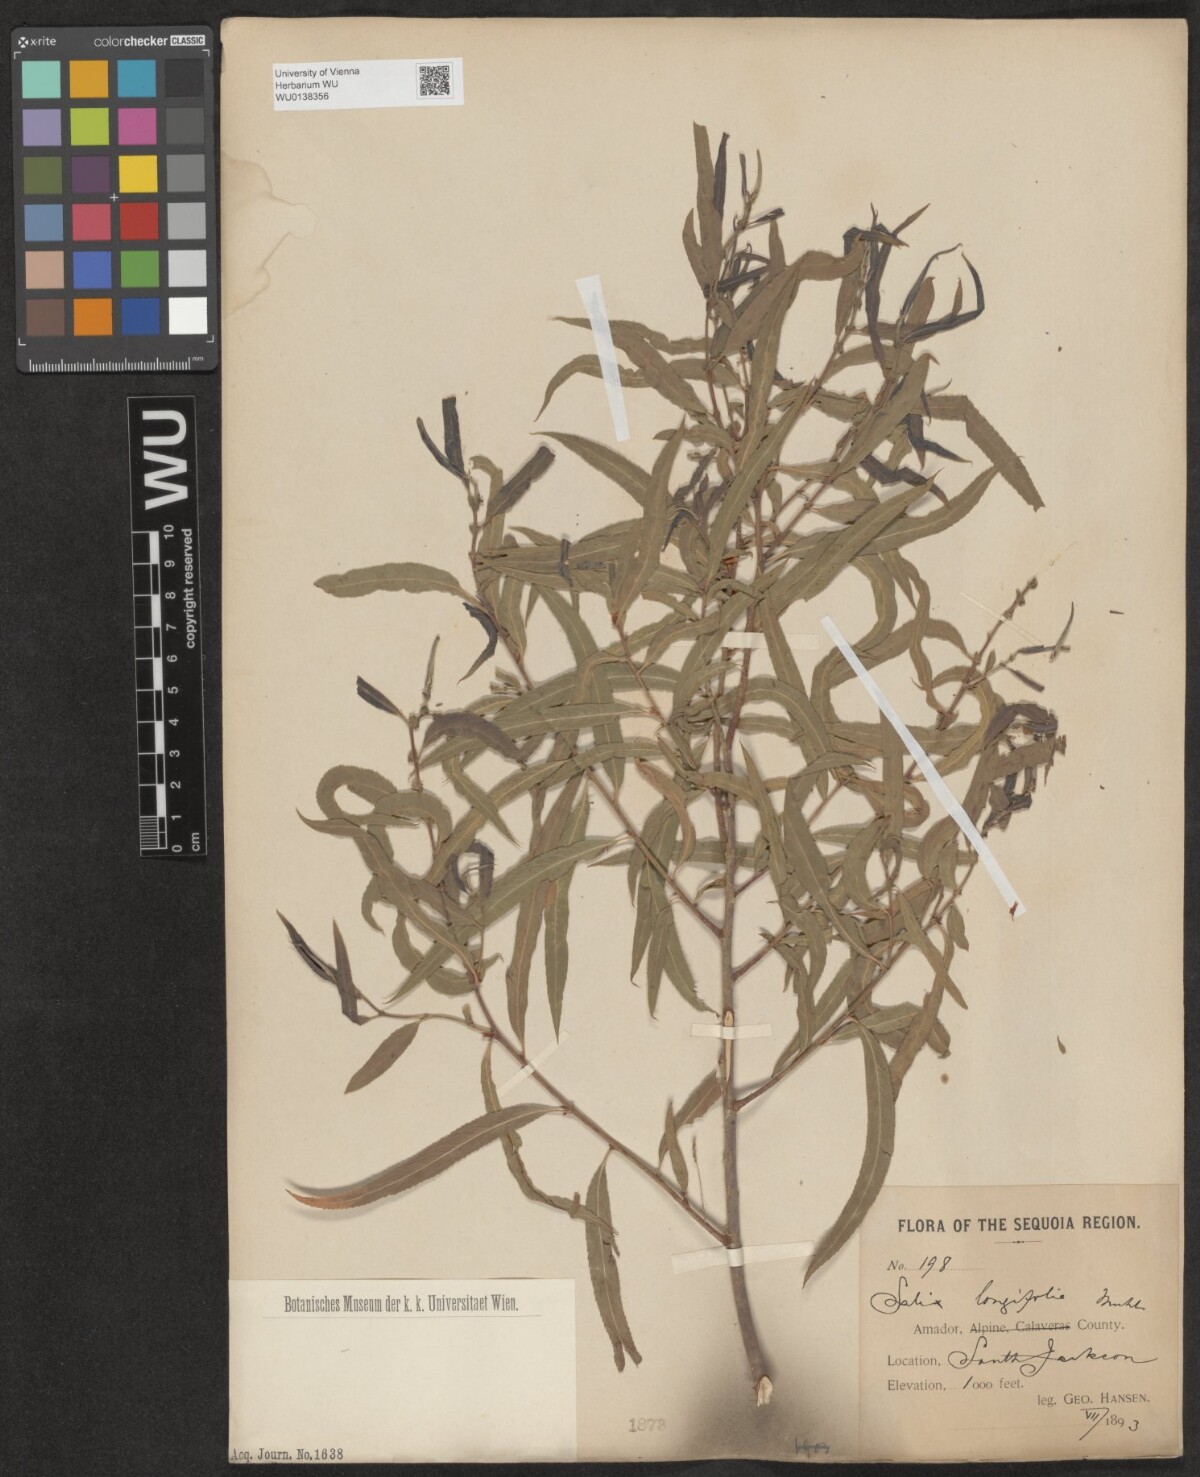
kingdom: Plantae
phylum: Tracheophyta
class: Magnoliopsida
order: Malpighiales
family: Salicaceae
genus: Salix
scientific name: Salix interior
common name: Sandbar willow
